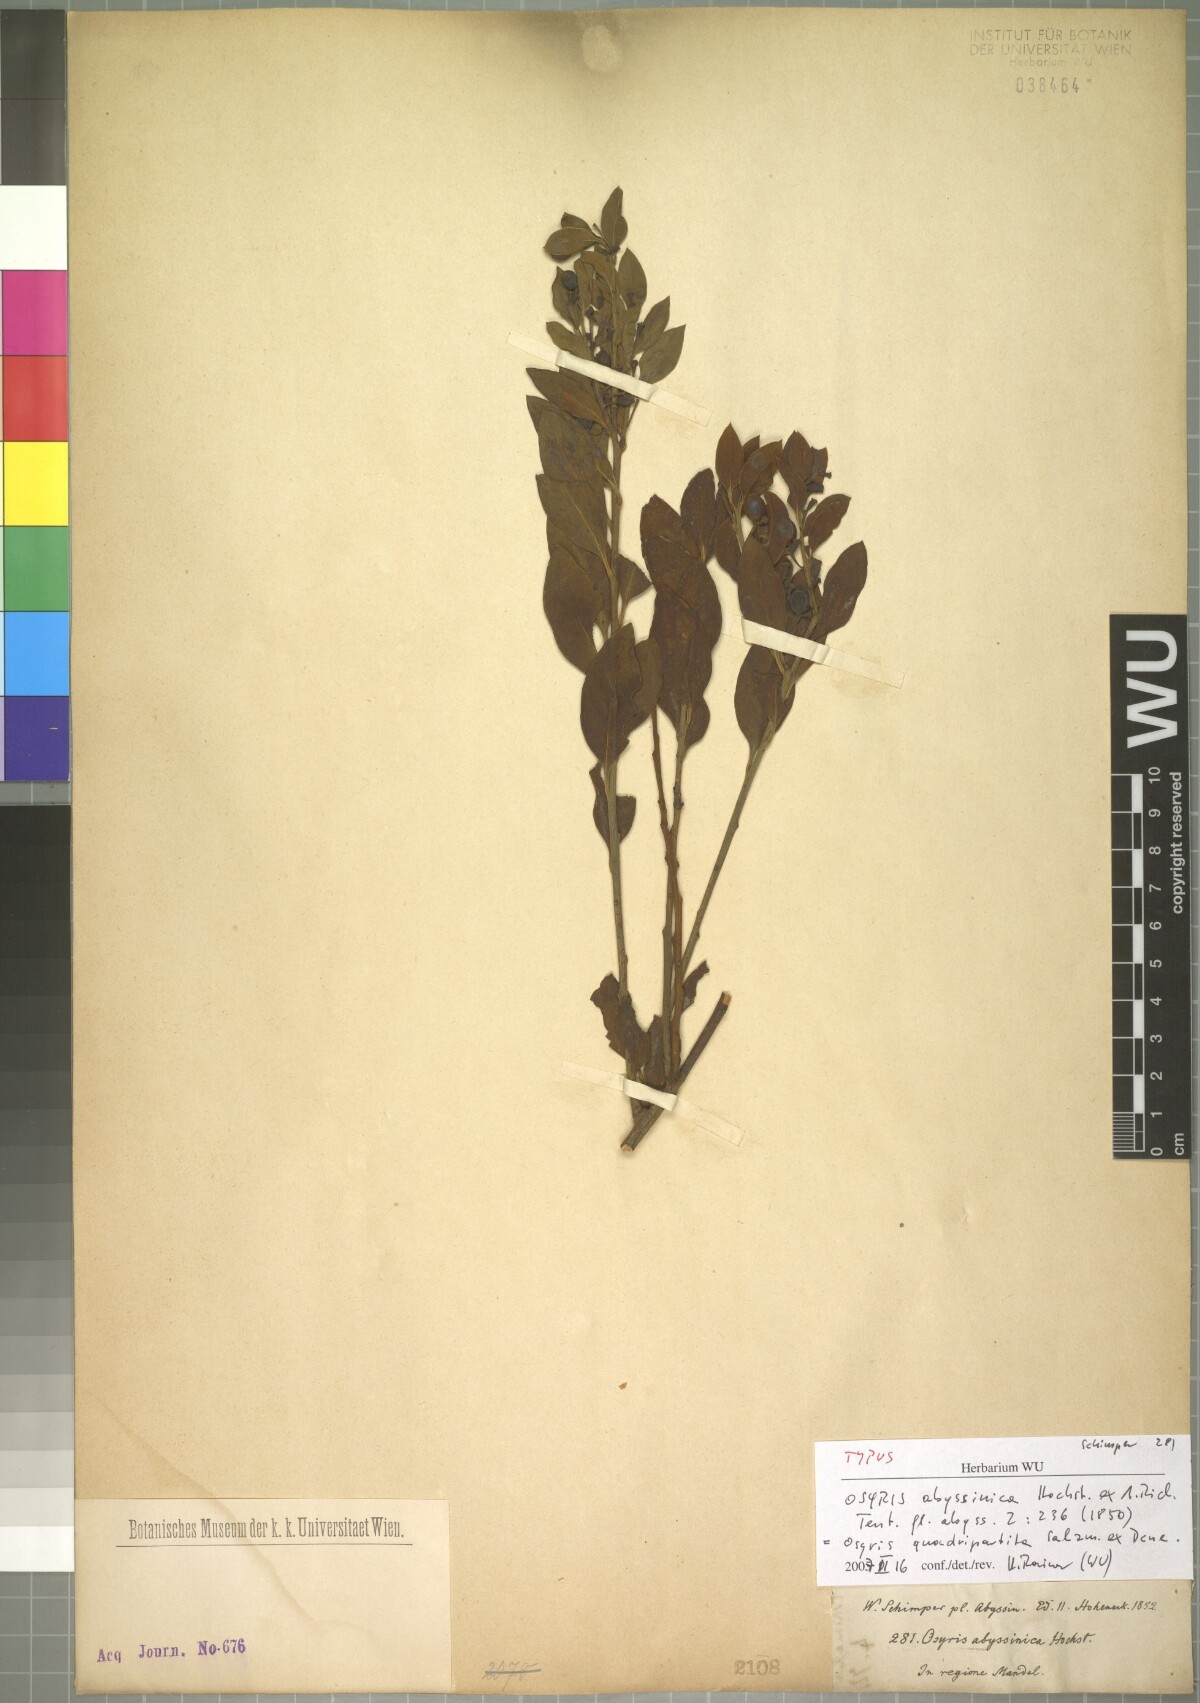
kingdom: Plantae
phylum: Tracheophyta
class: Magnoliopsida
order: Santalales
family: Santalaceae
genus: Osyris
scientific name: Osyris quadripartita
